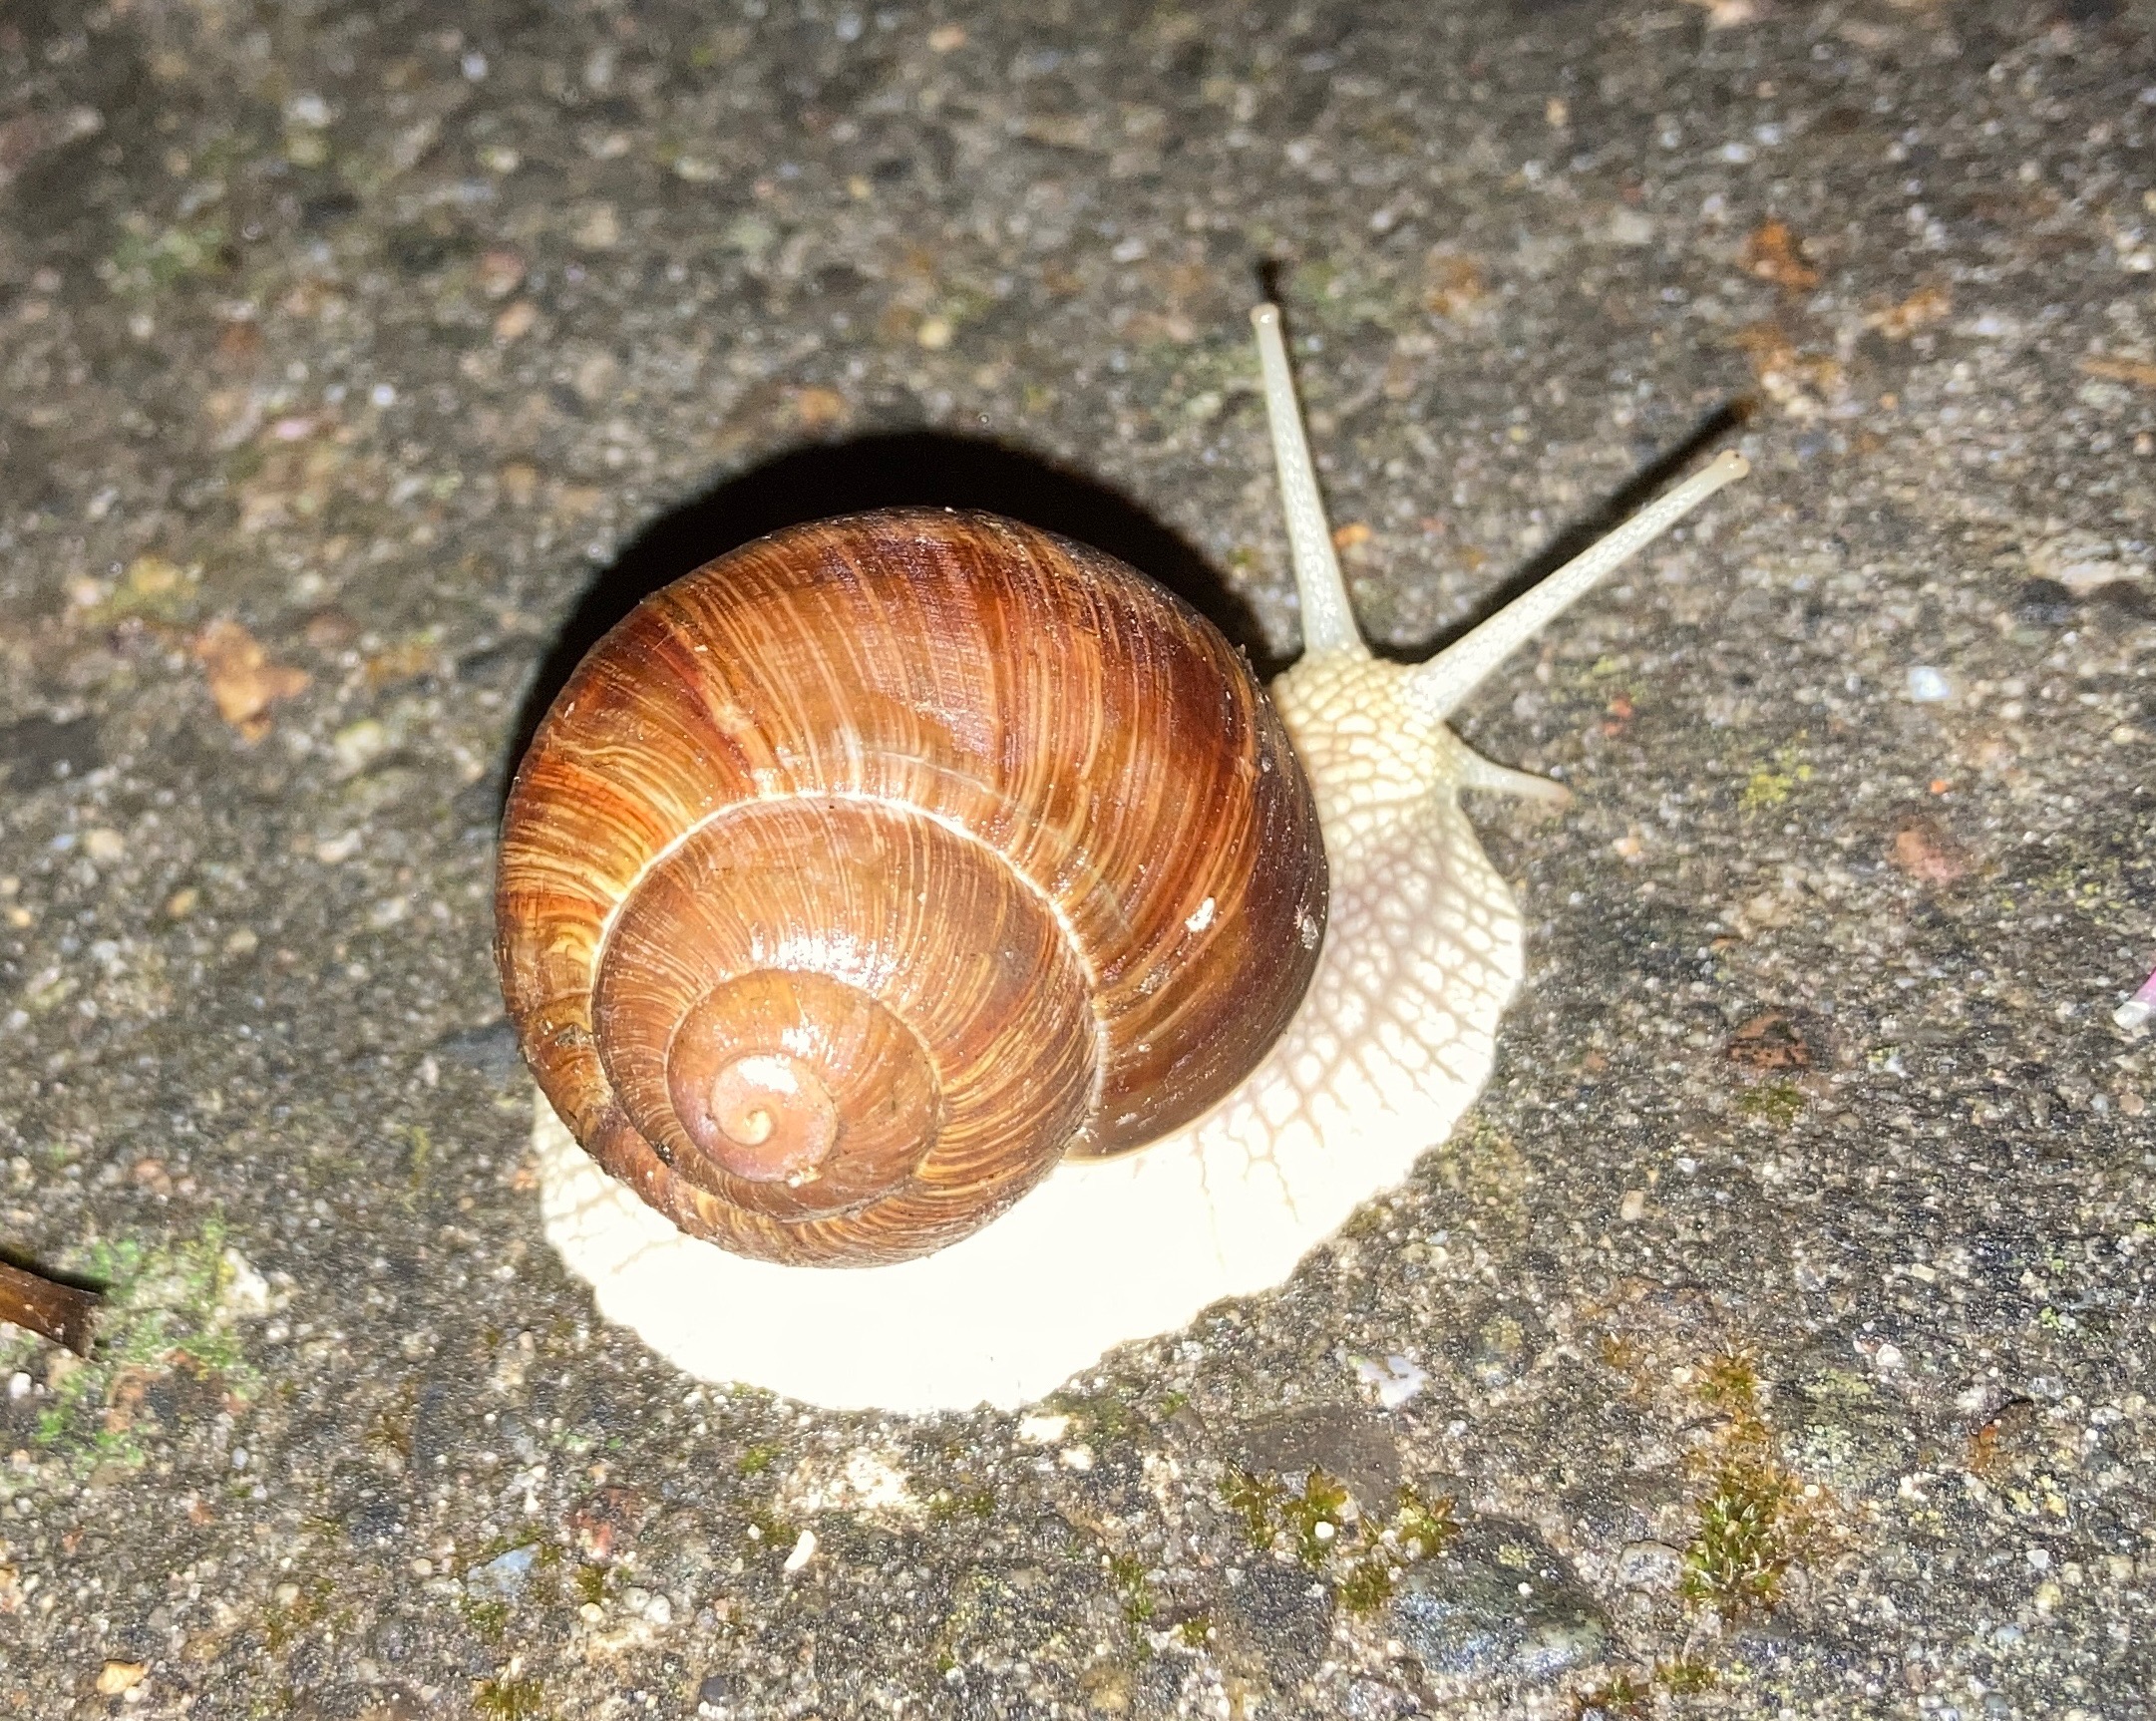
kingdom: Animalia
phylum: Mollusca
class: Gastropoda
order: Stylommatophora
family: Helicidae
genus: Helix
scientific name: Helix pomatia
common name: Vinbjergsnegl
